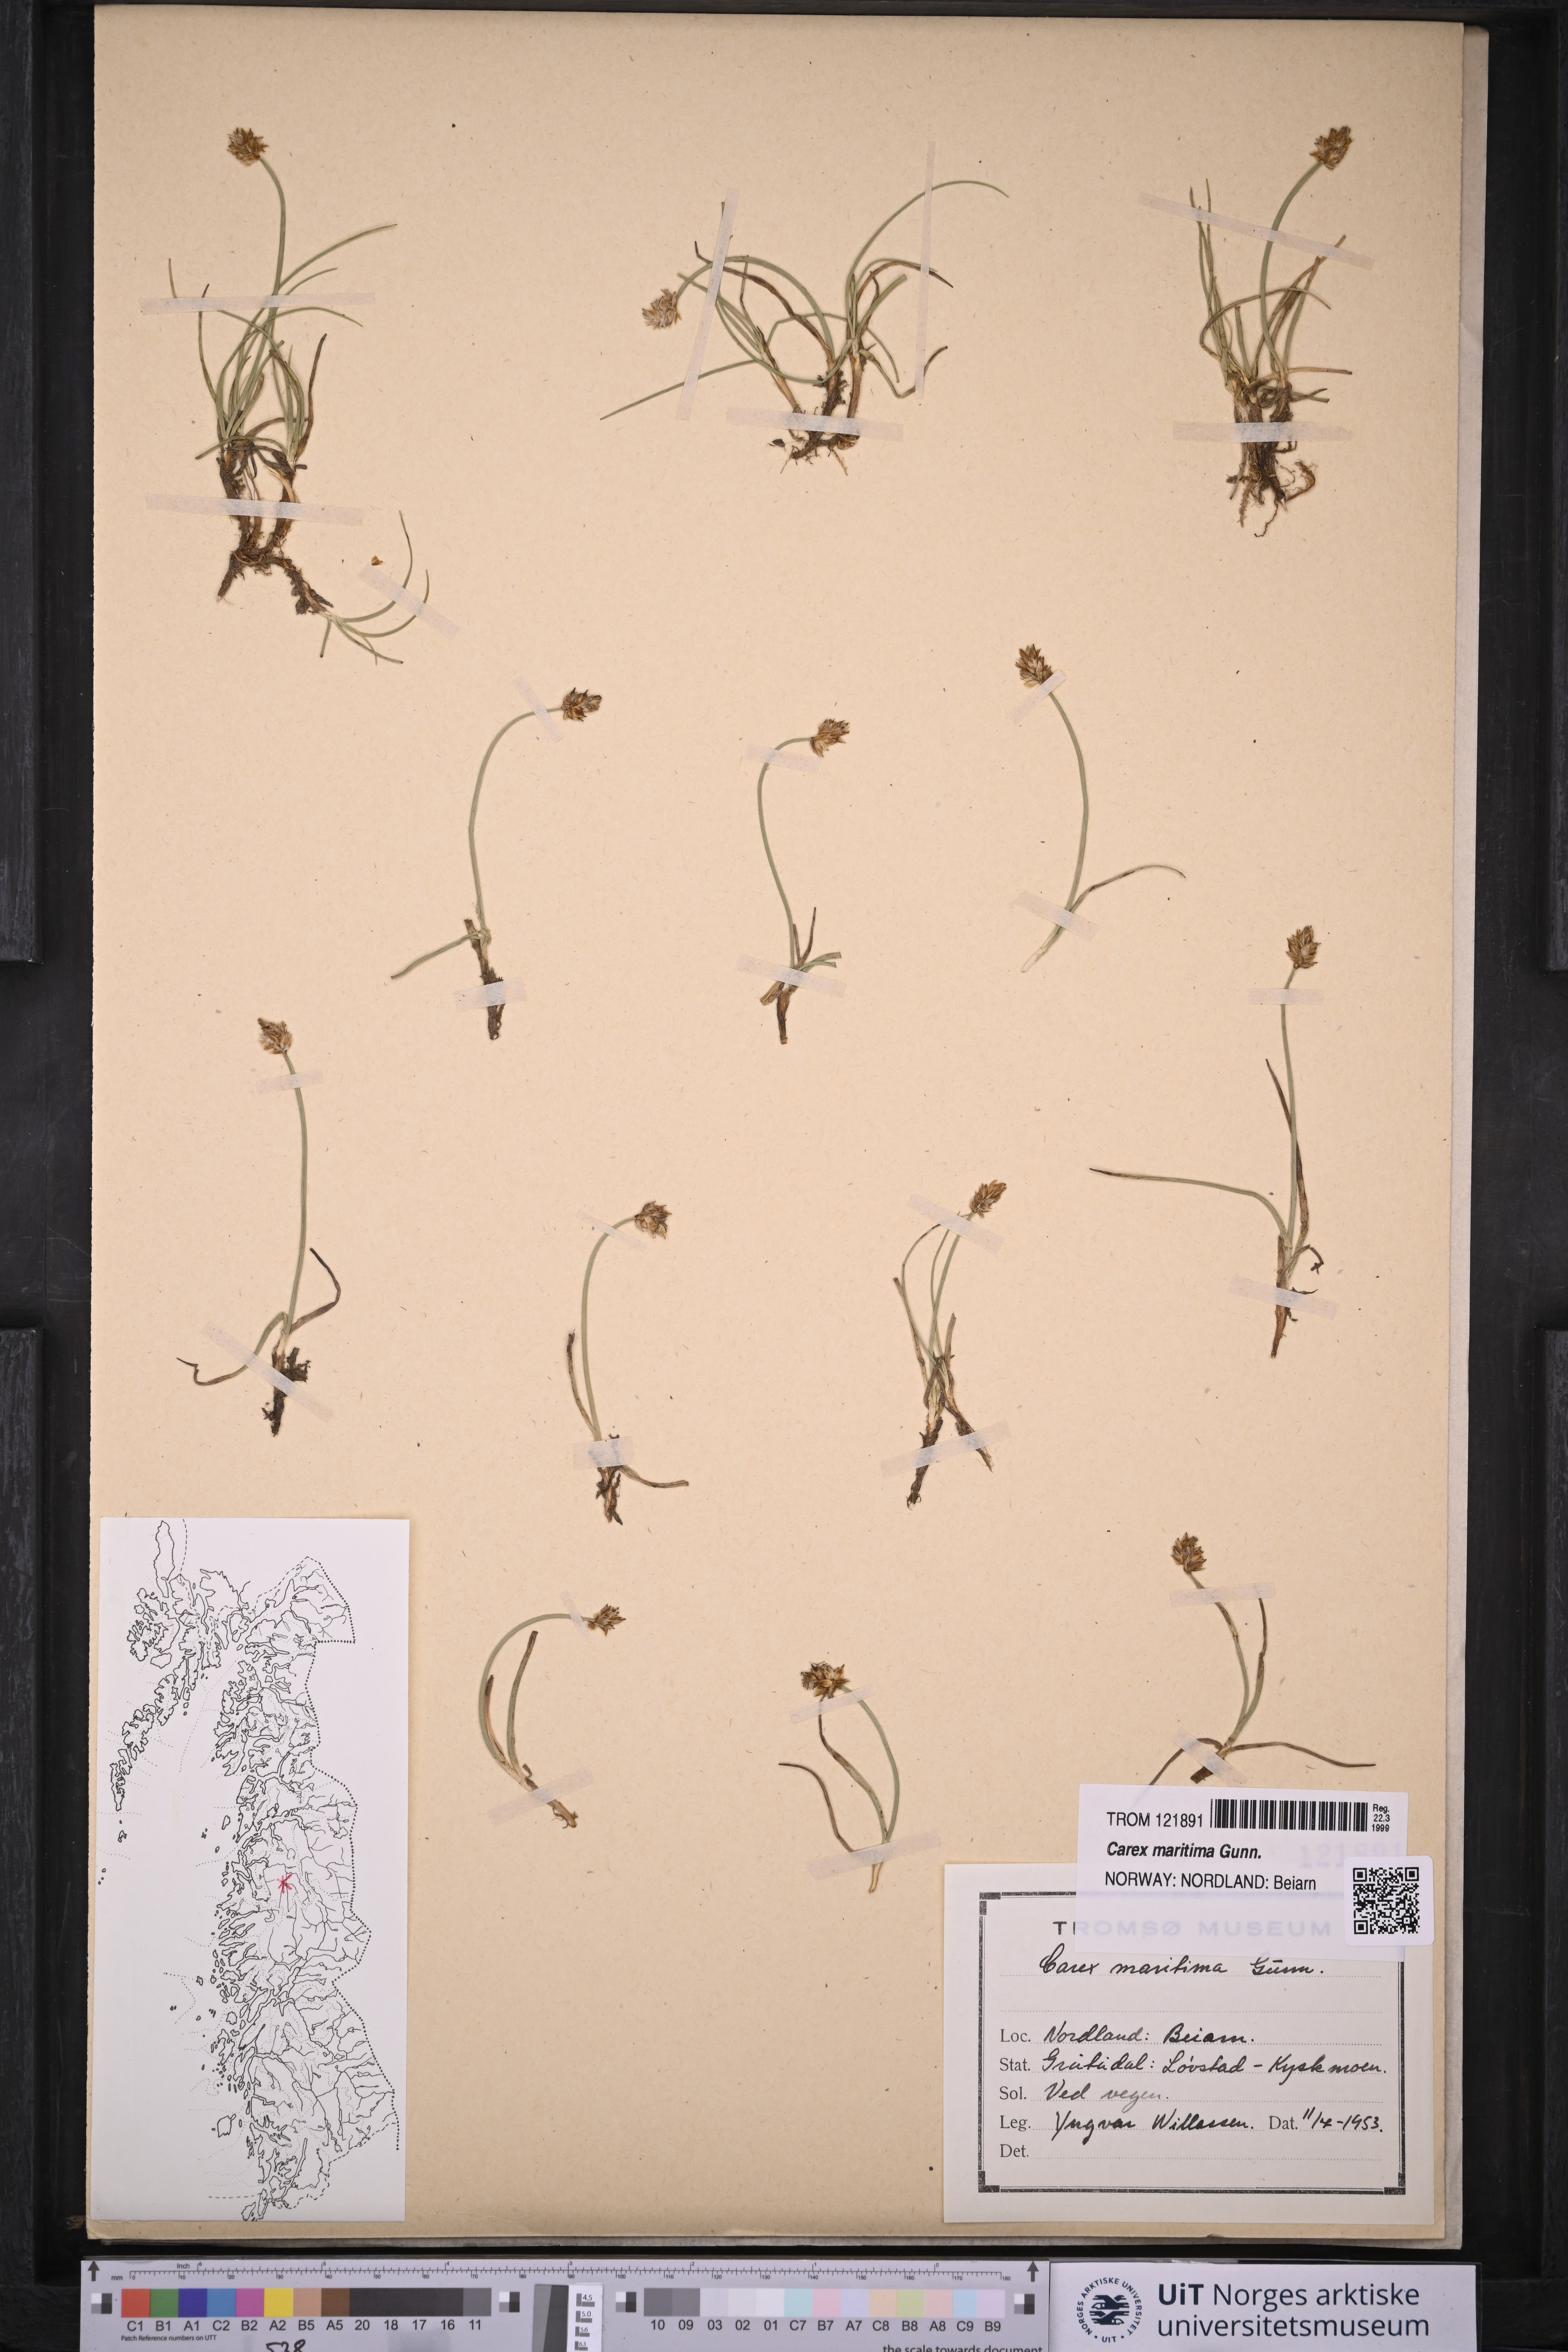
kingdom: Plantae
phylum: Tracheophyta
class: Liliopsida
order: Poales
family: Cyperaceae
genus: Carex
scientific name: Carex maritima
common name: Curved sedge
